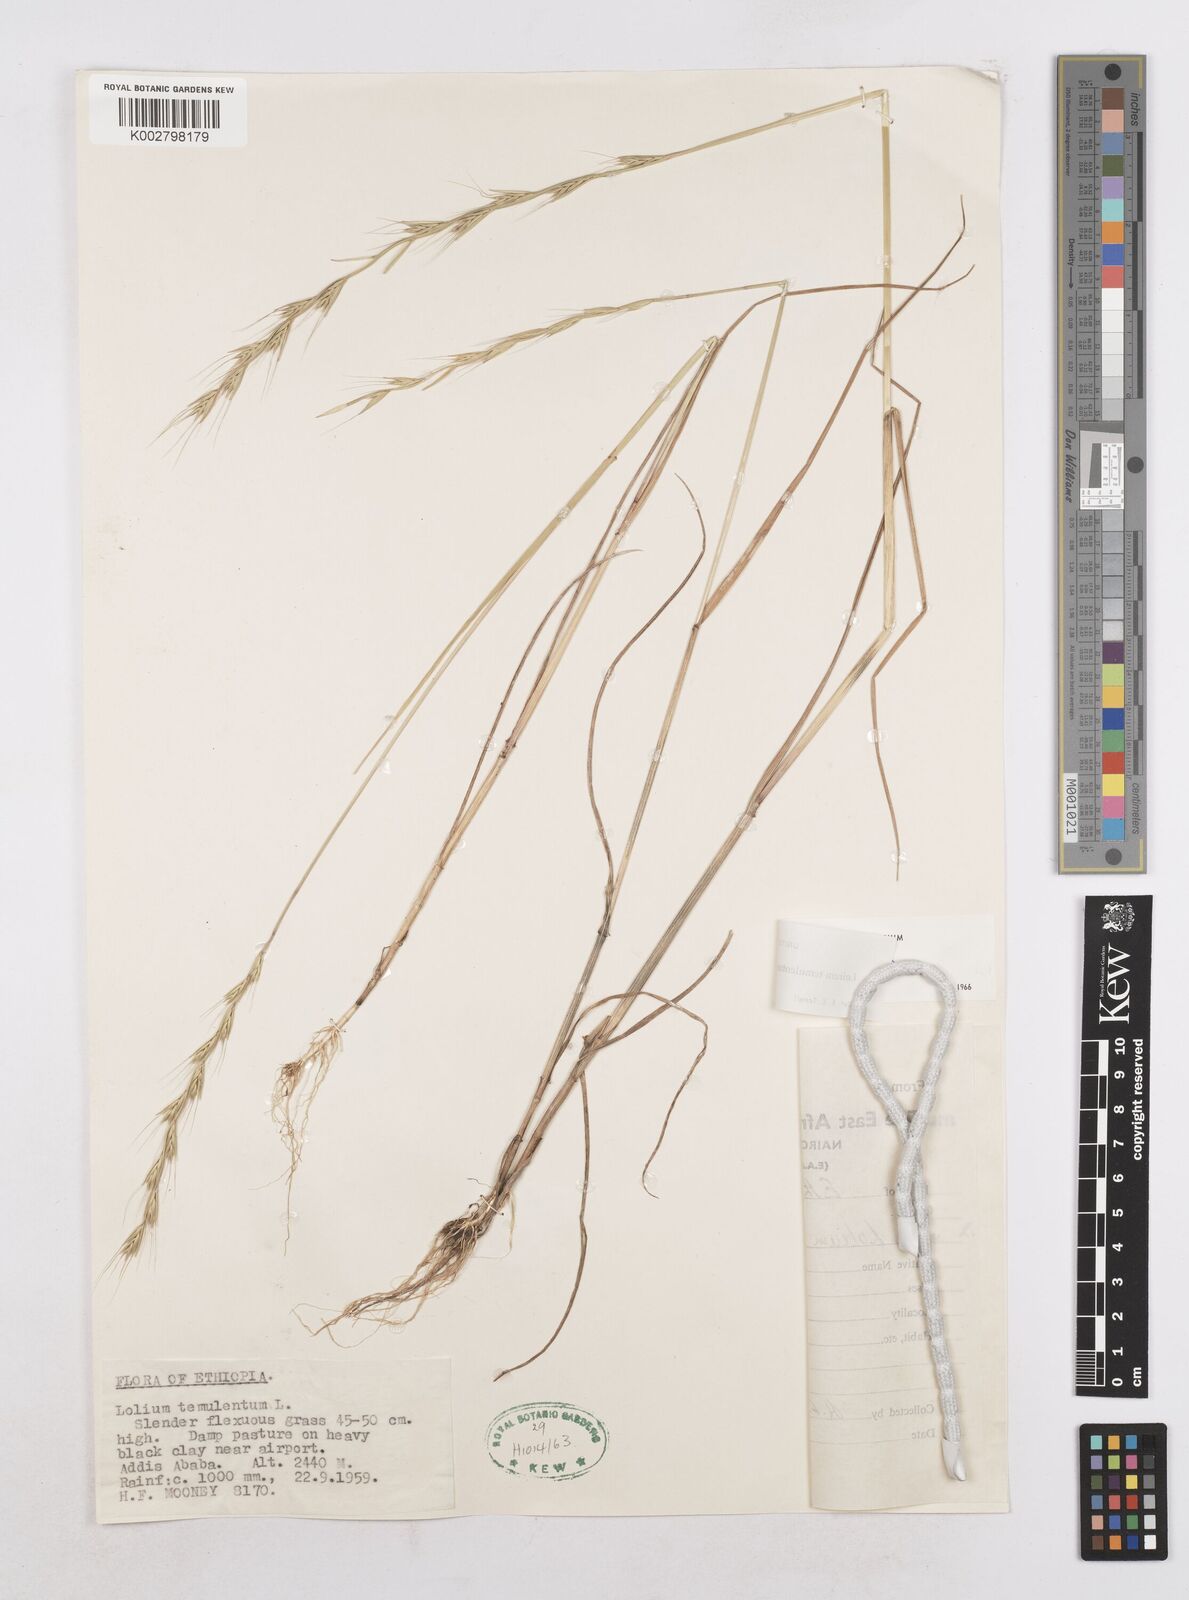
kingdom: Plantae
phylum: Tracheophyta
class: Liliopsida
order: Poales
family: Poaceae
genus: Lolium
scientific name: Lolium temulentum
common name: Darnel
